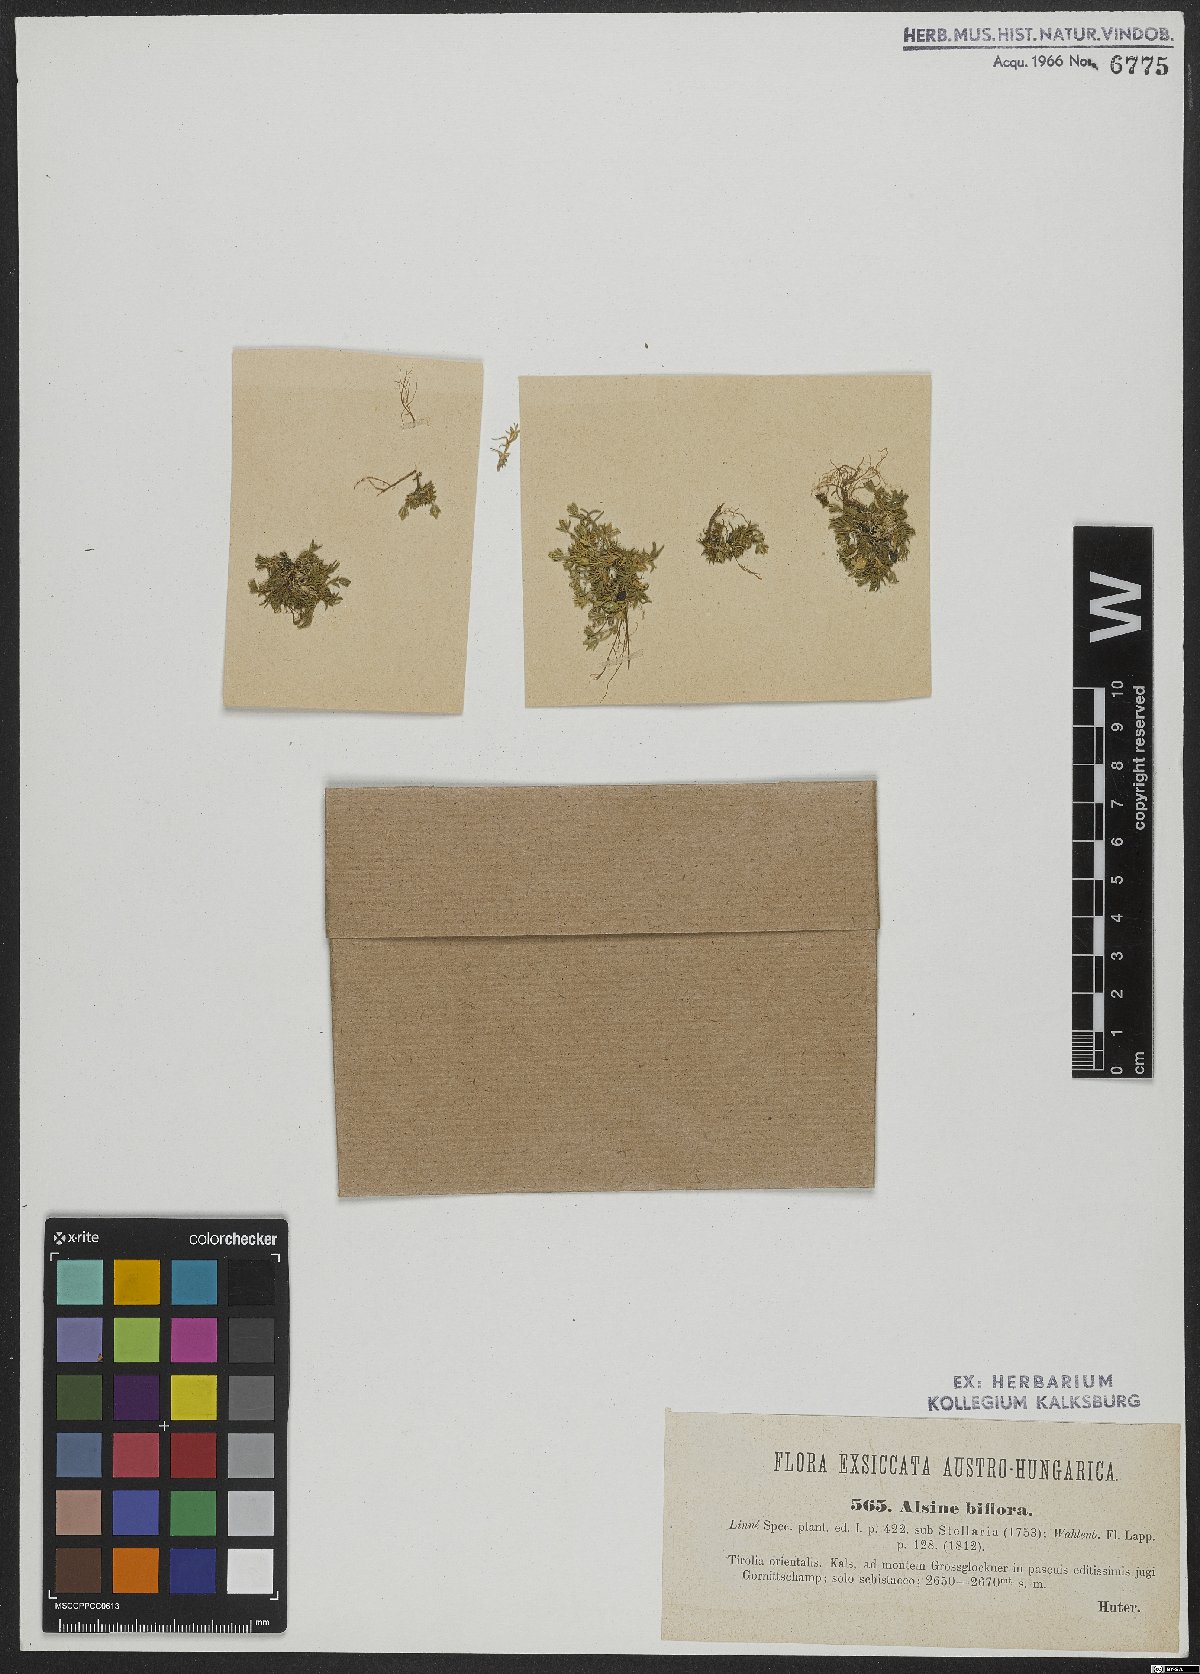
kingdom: Plantae
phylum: Tracheophyta
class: Magnoliopsida
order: Caryophyllales
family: Caryophyllaceae
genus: Cherleria
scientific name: Cherleria biflora
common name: Mountain sandwort
